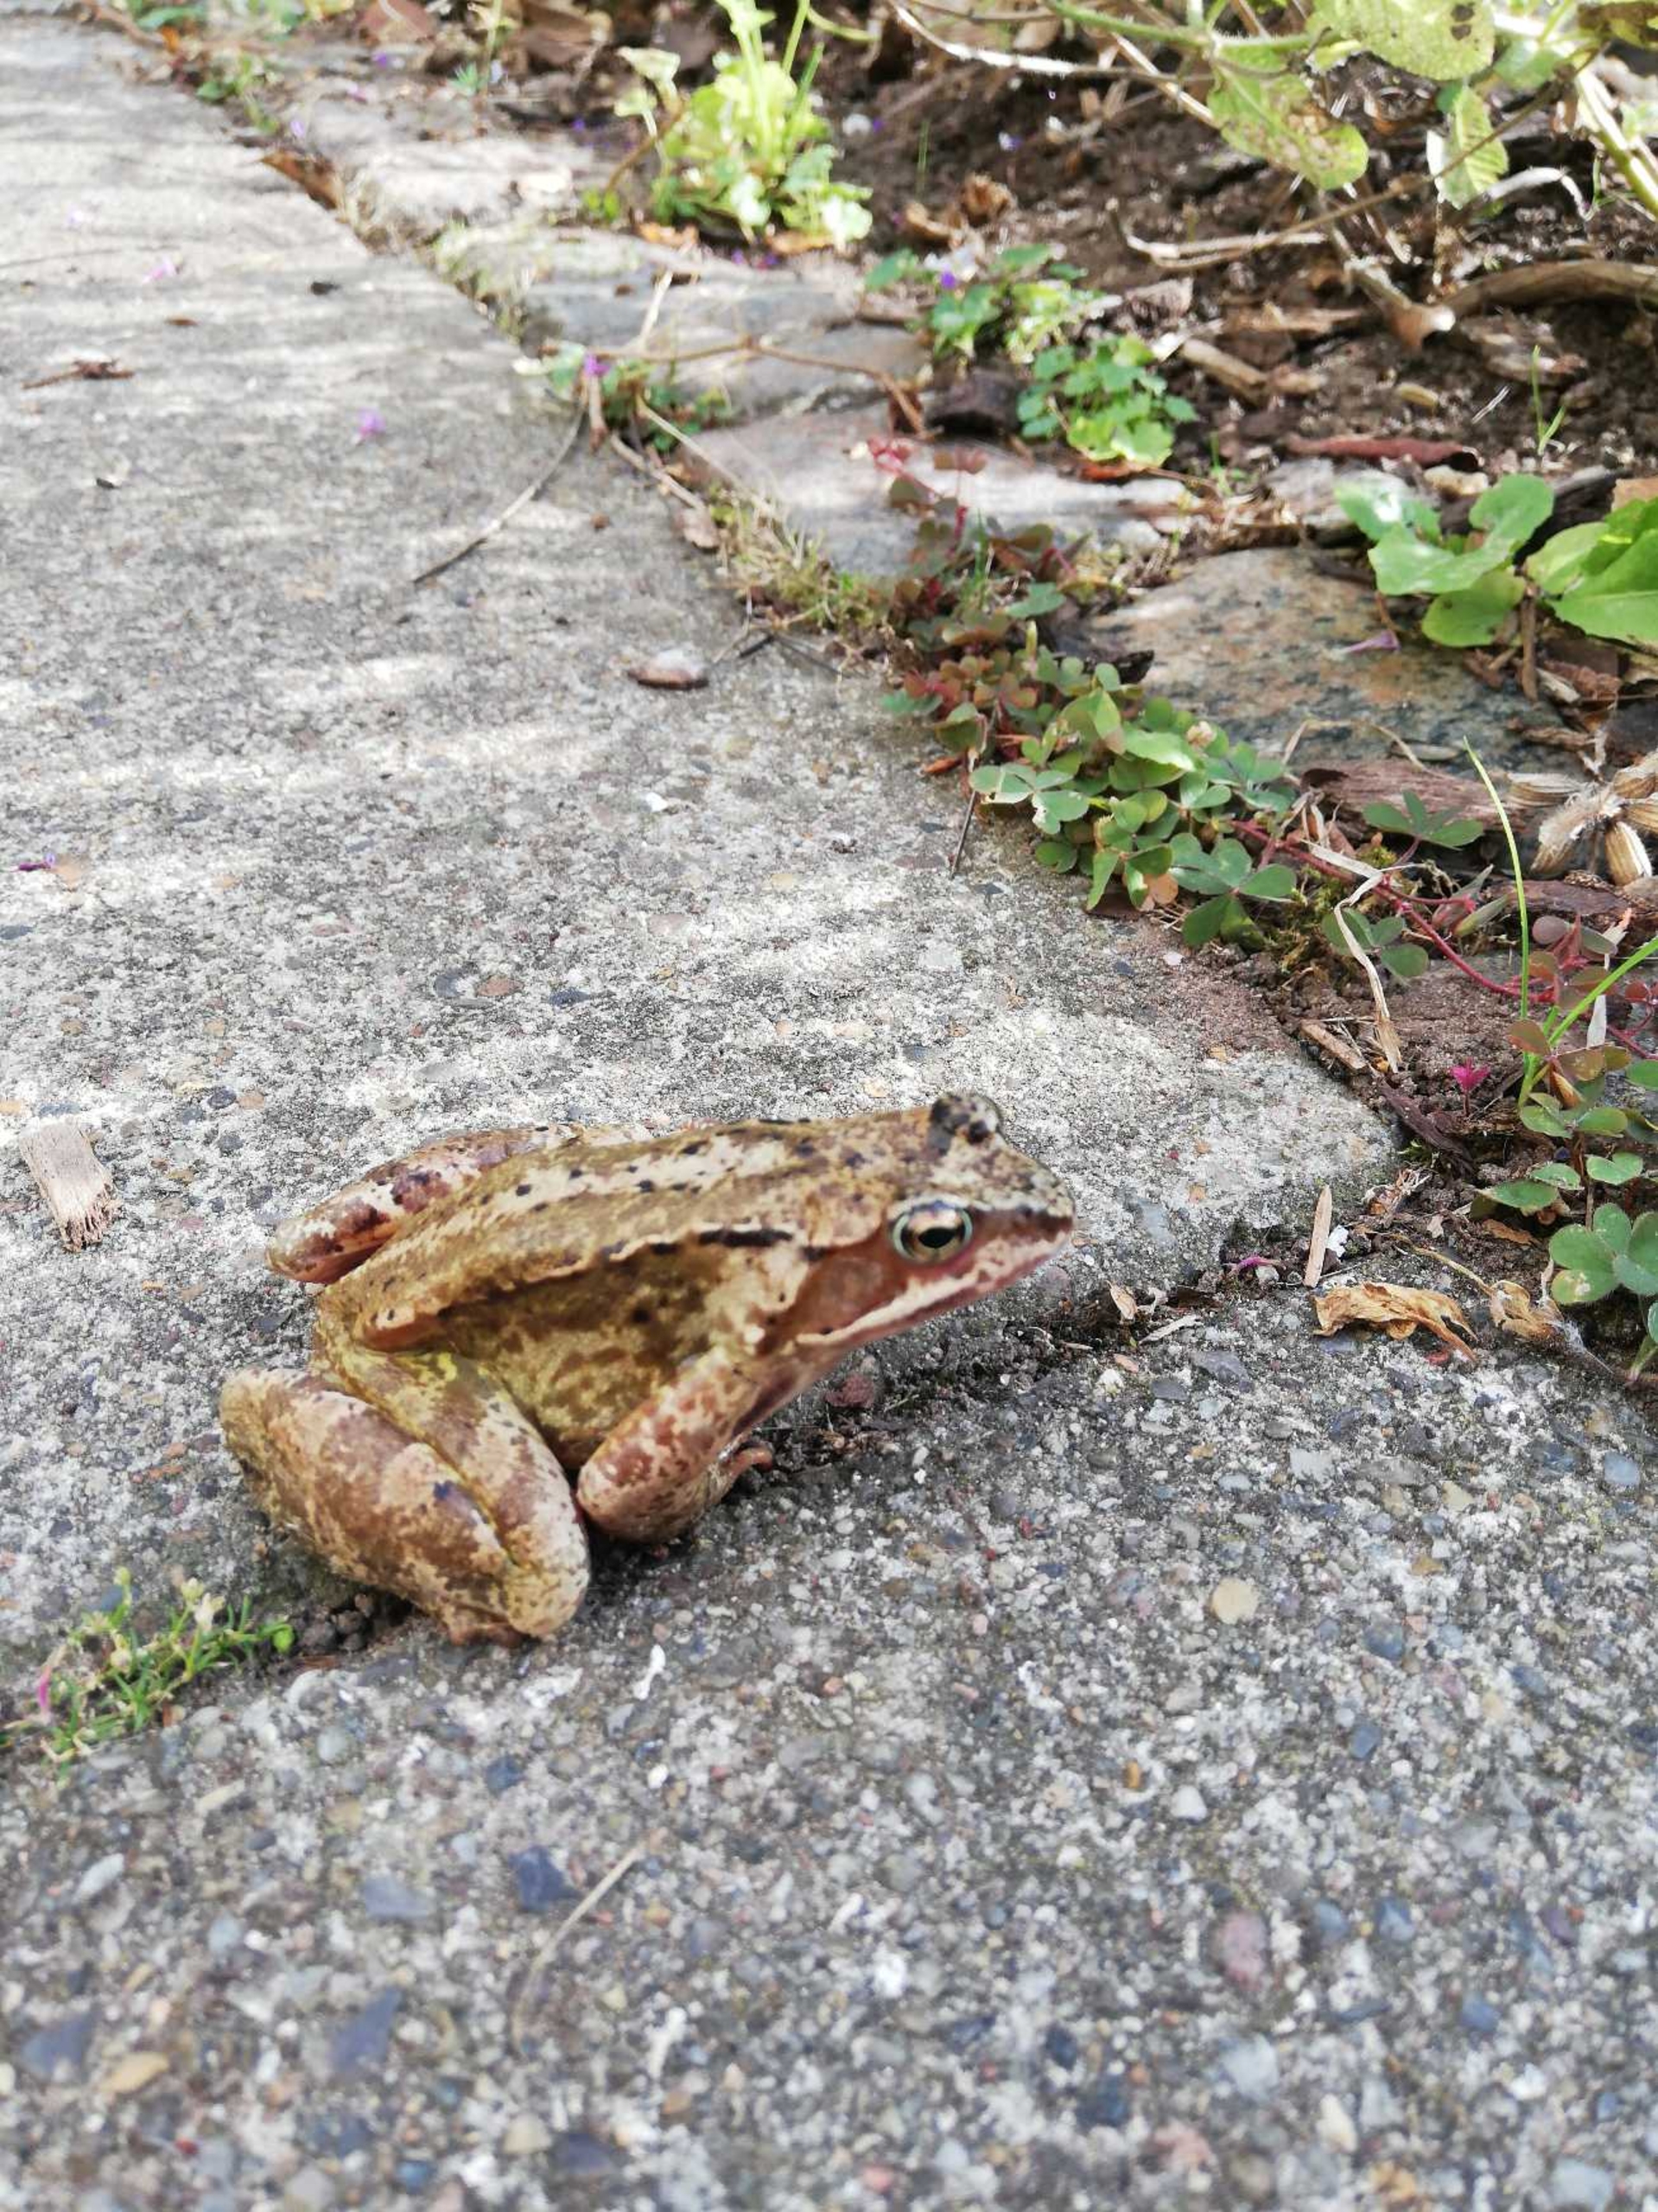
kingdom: Animalia
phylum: Chordata
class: Amphibia
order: Anura
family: Ranidae
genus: Rana
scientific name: Rana temporaria
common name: Butsnudet frø
